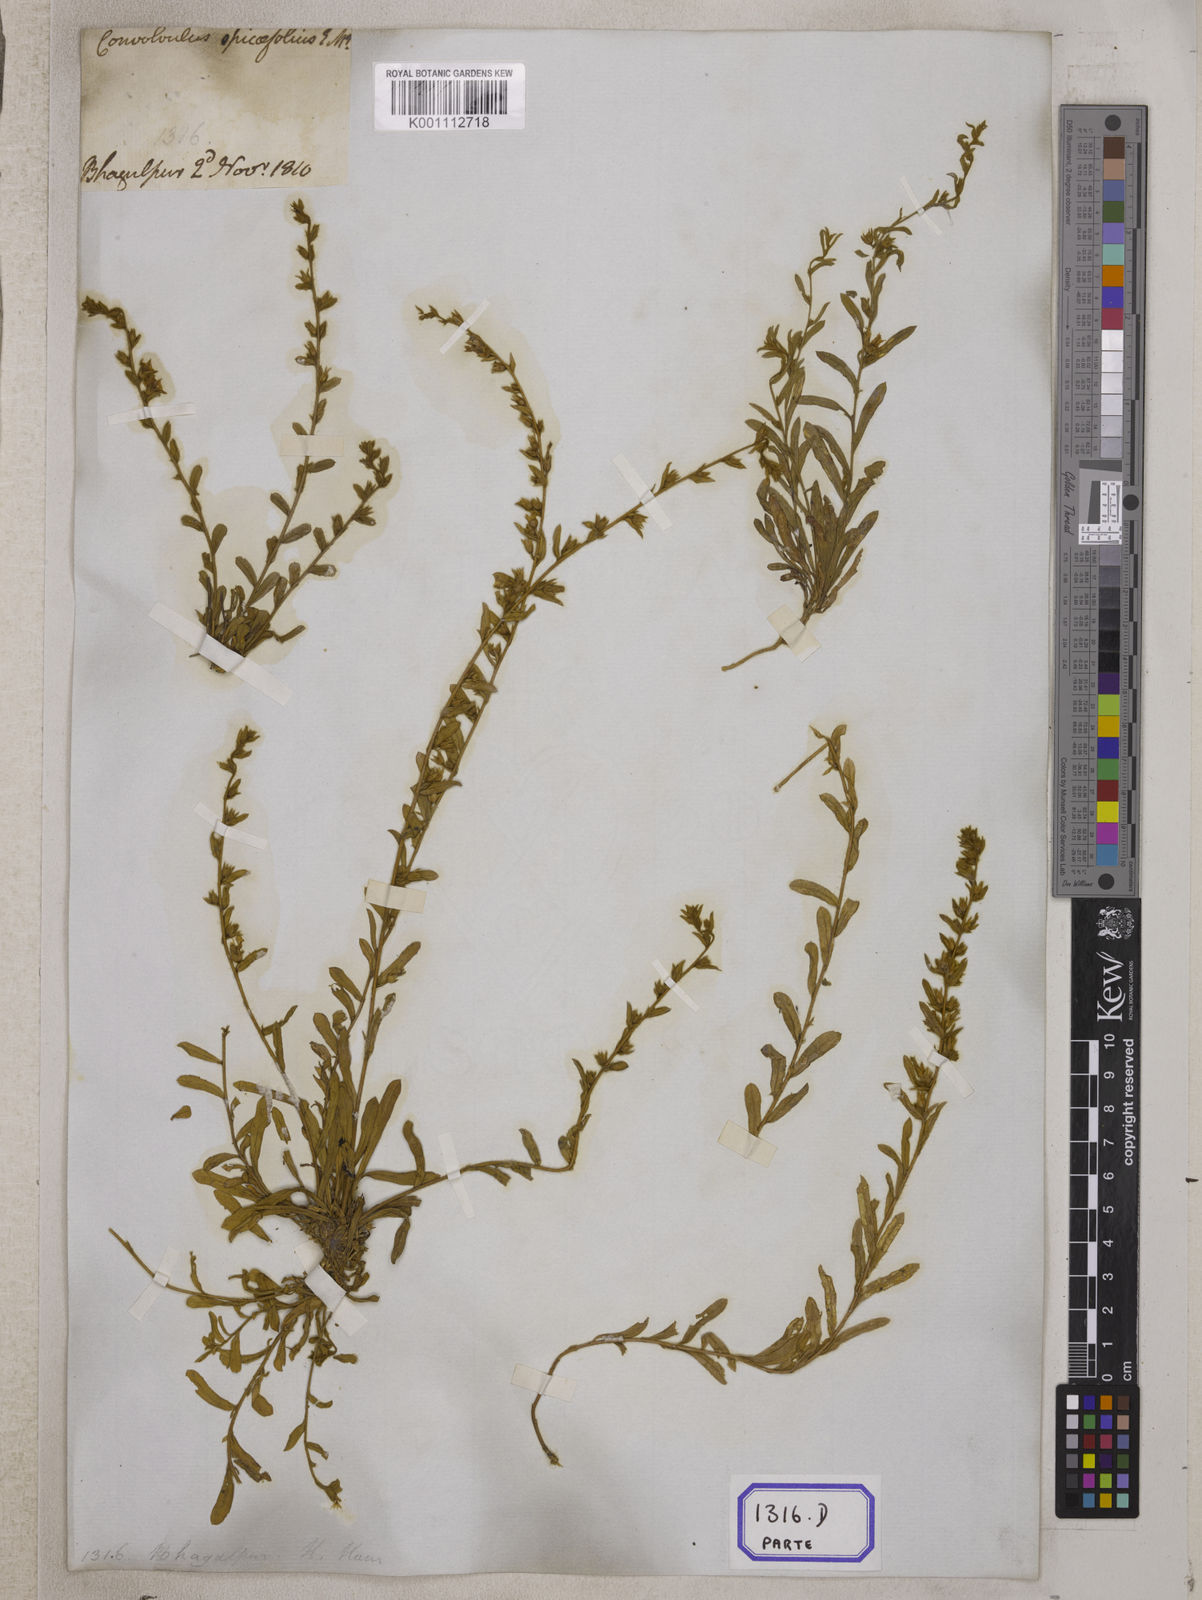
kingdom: Plantae
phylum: Tracheophyta
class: Magnoliopsida
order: Solanales
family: Convolvulaceae
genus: Evolvulus
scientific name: Evolvulus
